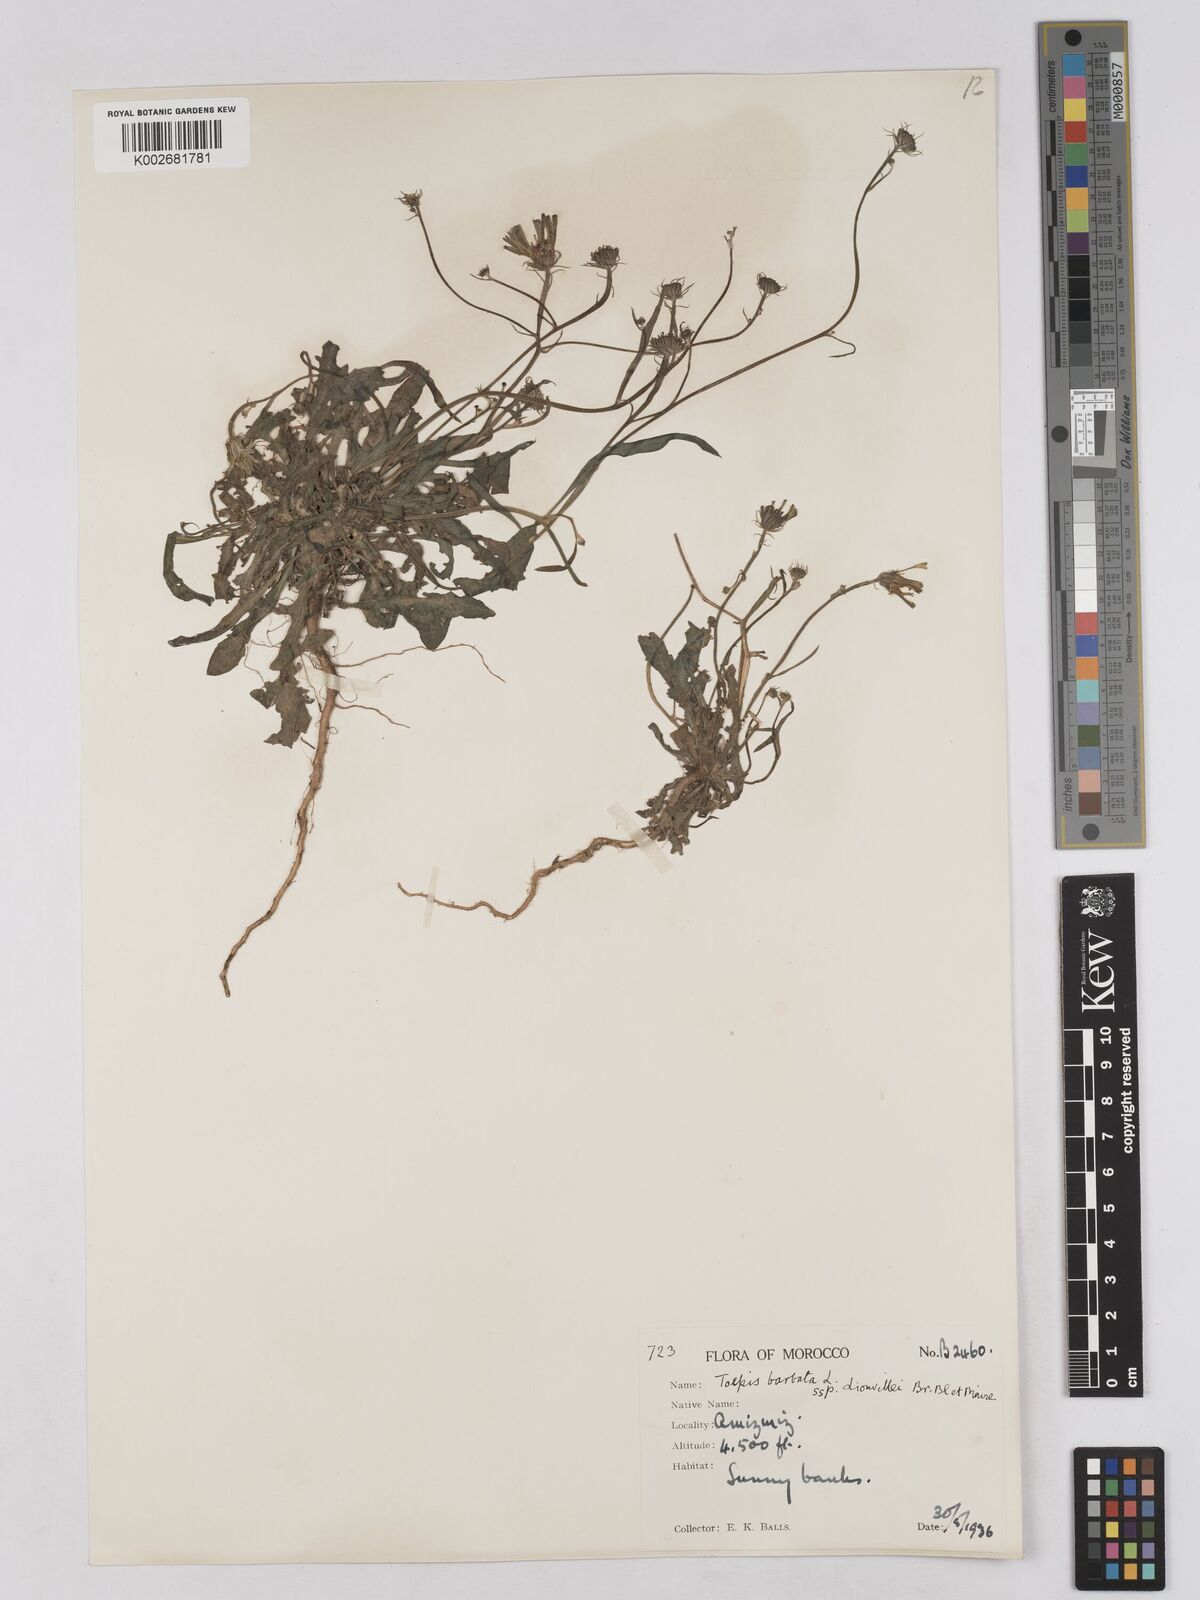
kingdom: Plantae
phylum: Tracheophyta
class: Magnoliopsida
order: Asterales
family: Asteraceae
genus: Tolpis
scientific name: Tolpis liouvillei
